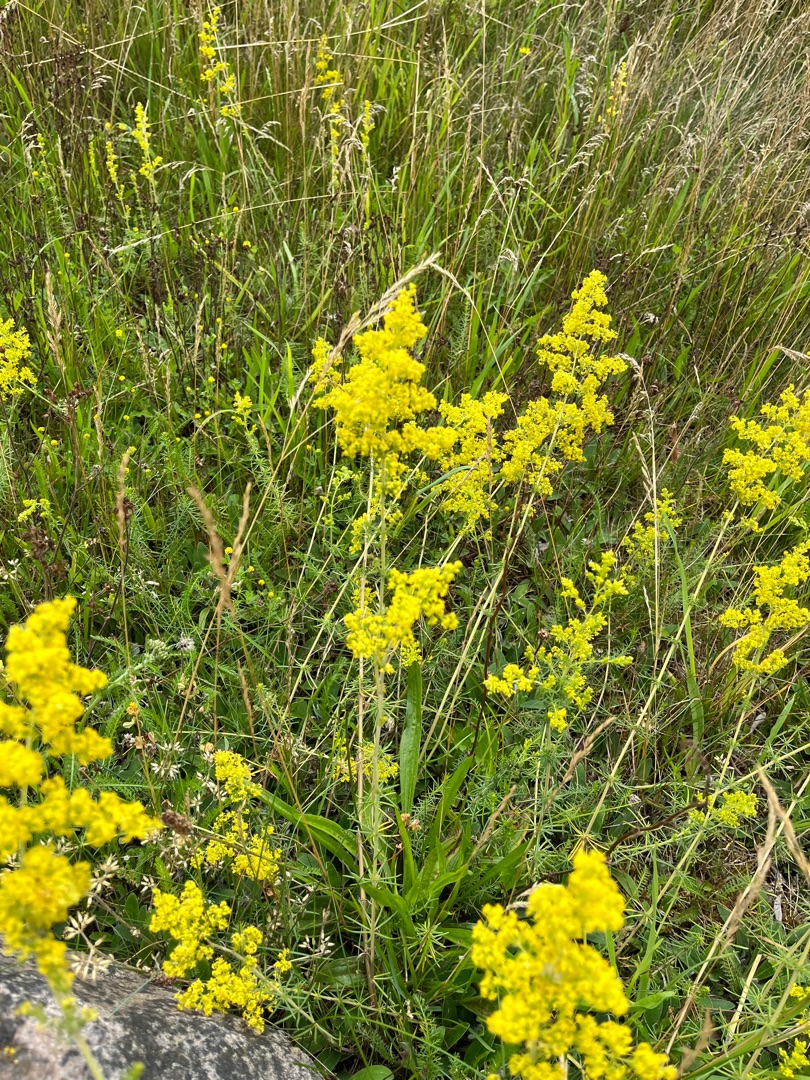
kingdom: Plantae
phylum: Tracheophyta
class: Magnoliopsida
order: Gentianales
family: Rubiaceae
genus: Galium
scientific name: Galium verum
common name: Gul snerre
